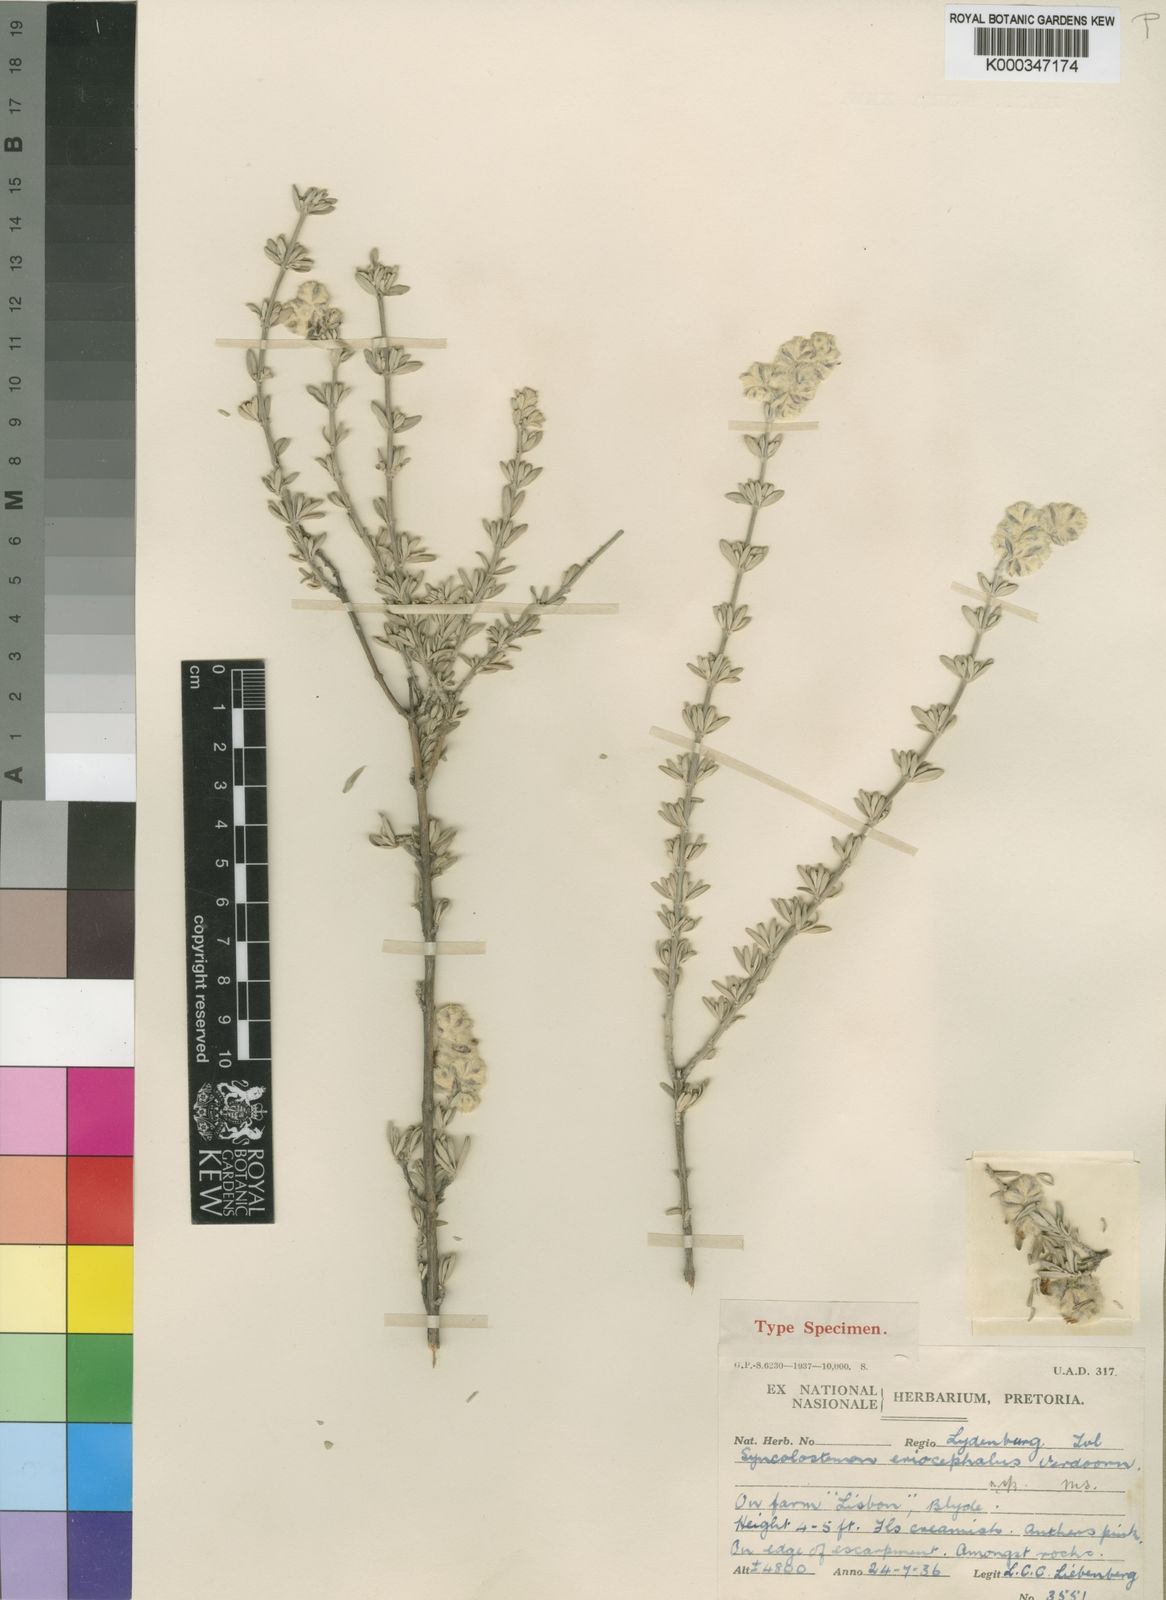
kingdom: Plantae
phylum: Tracheophyta
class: Magnoliopsida
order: Lamiales
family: Lamiaceae
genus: Syncolostemon
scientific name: Syncolostemon eriocephalus
